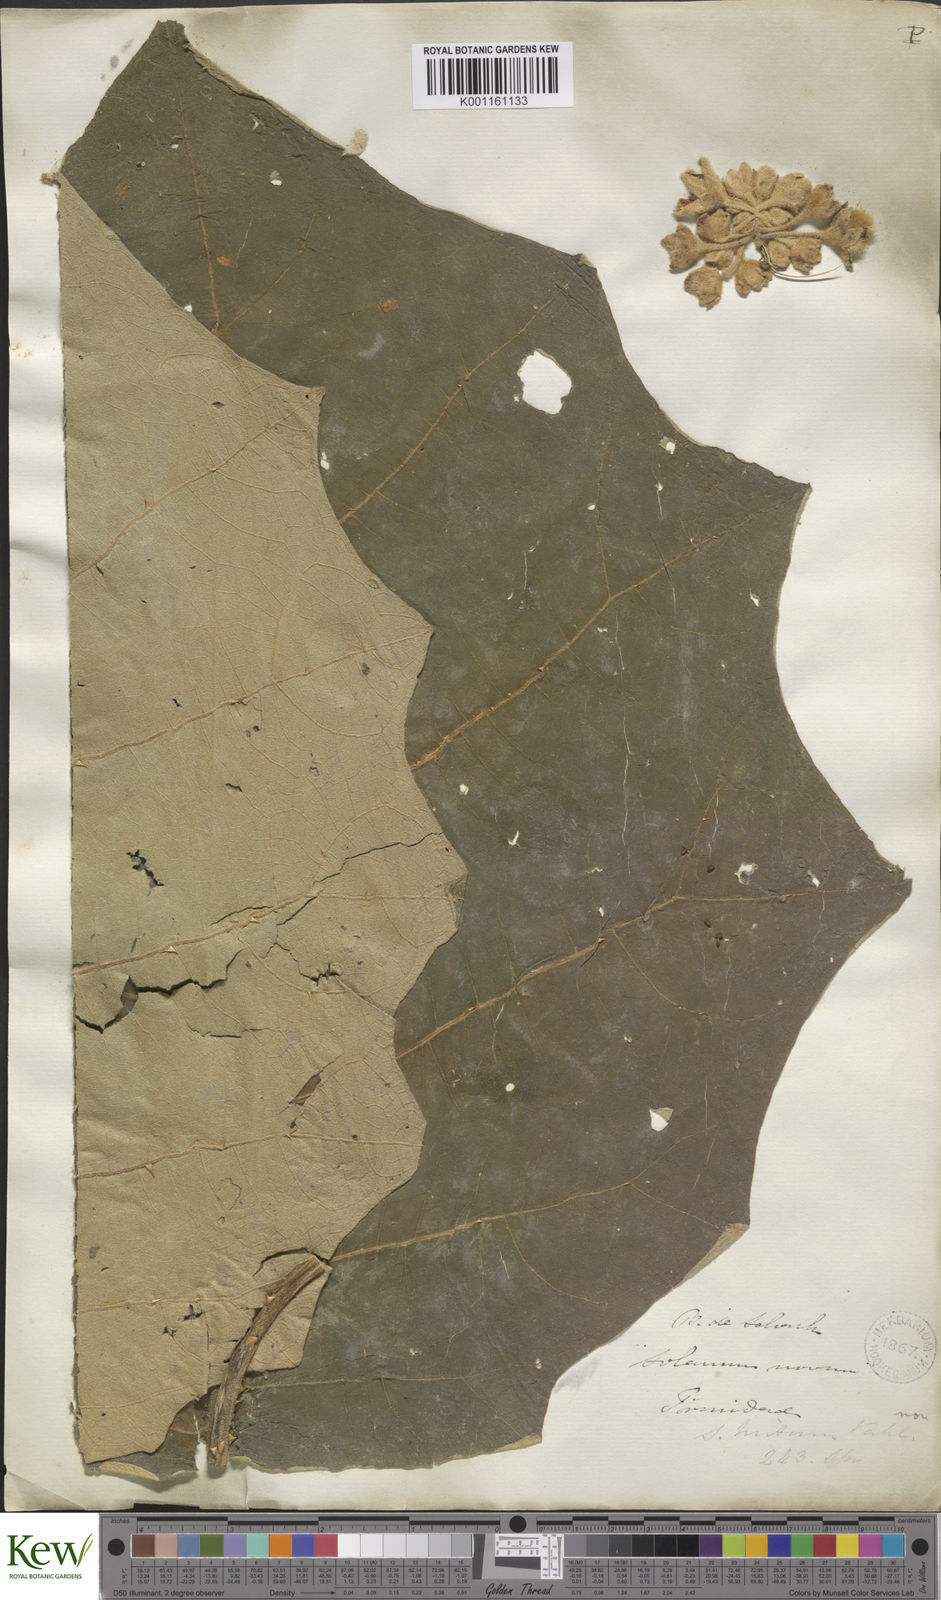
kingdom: Plantae
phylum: Tracheophyta
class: Magnoliopsida
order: Solanales
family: Solanaceae
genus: Solanum
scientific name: Solanum
